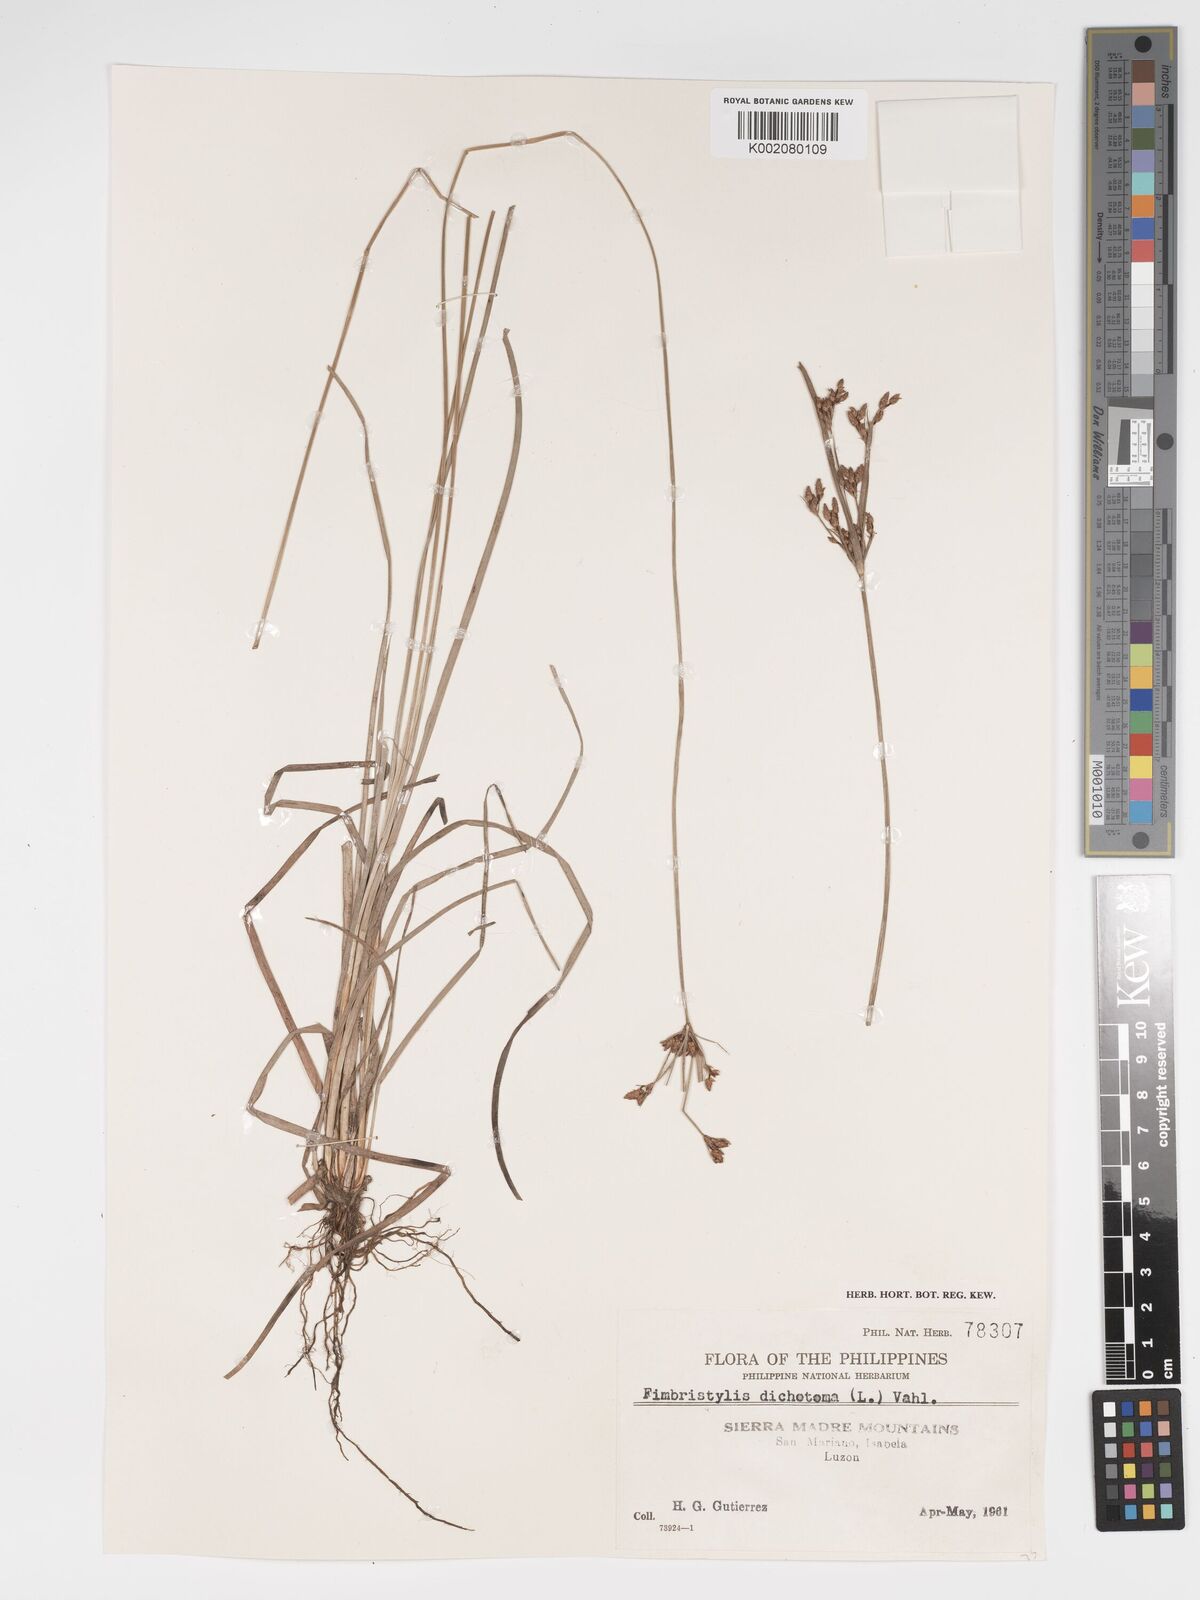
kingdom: Plantae
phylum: Tracheophyta
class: Liliopsida
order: Poales
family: Cyperaceae
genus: Fimbristylis
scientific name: Fimbristylis dichotoma
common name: Forked fimbry
